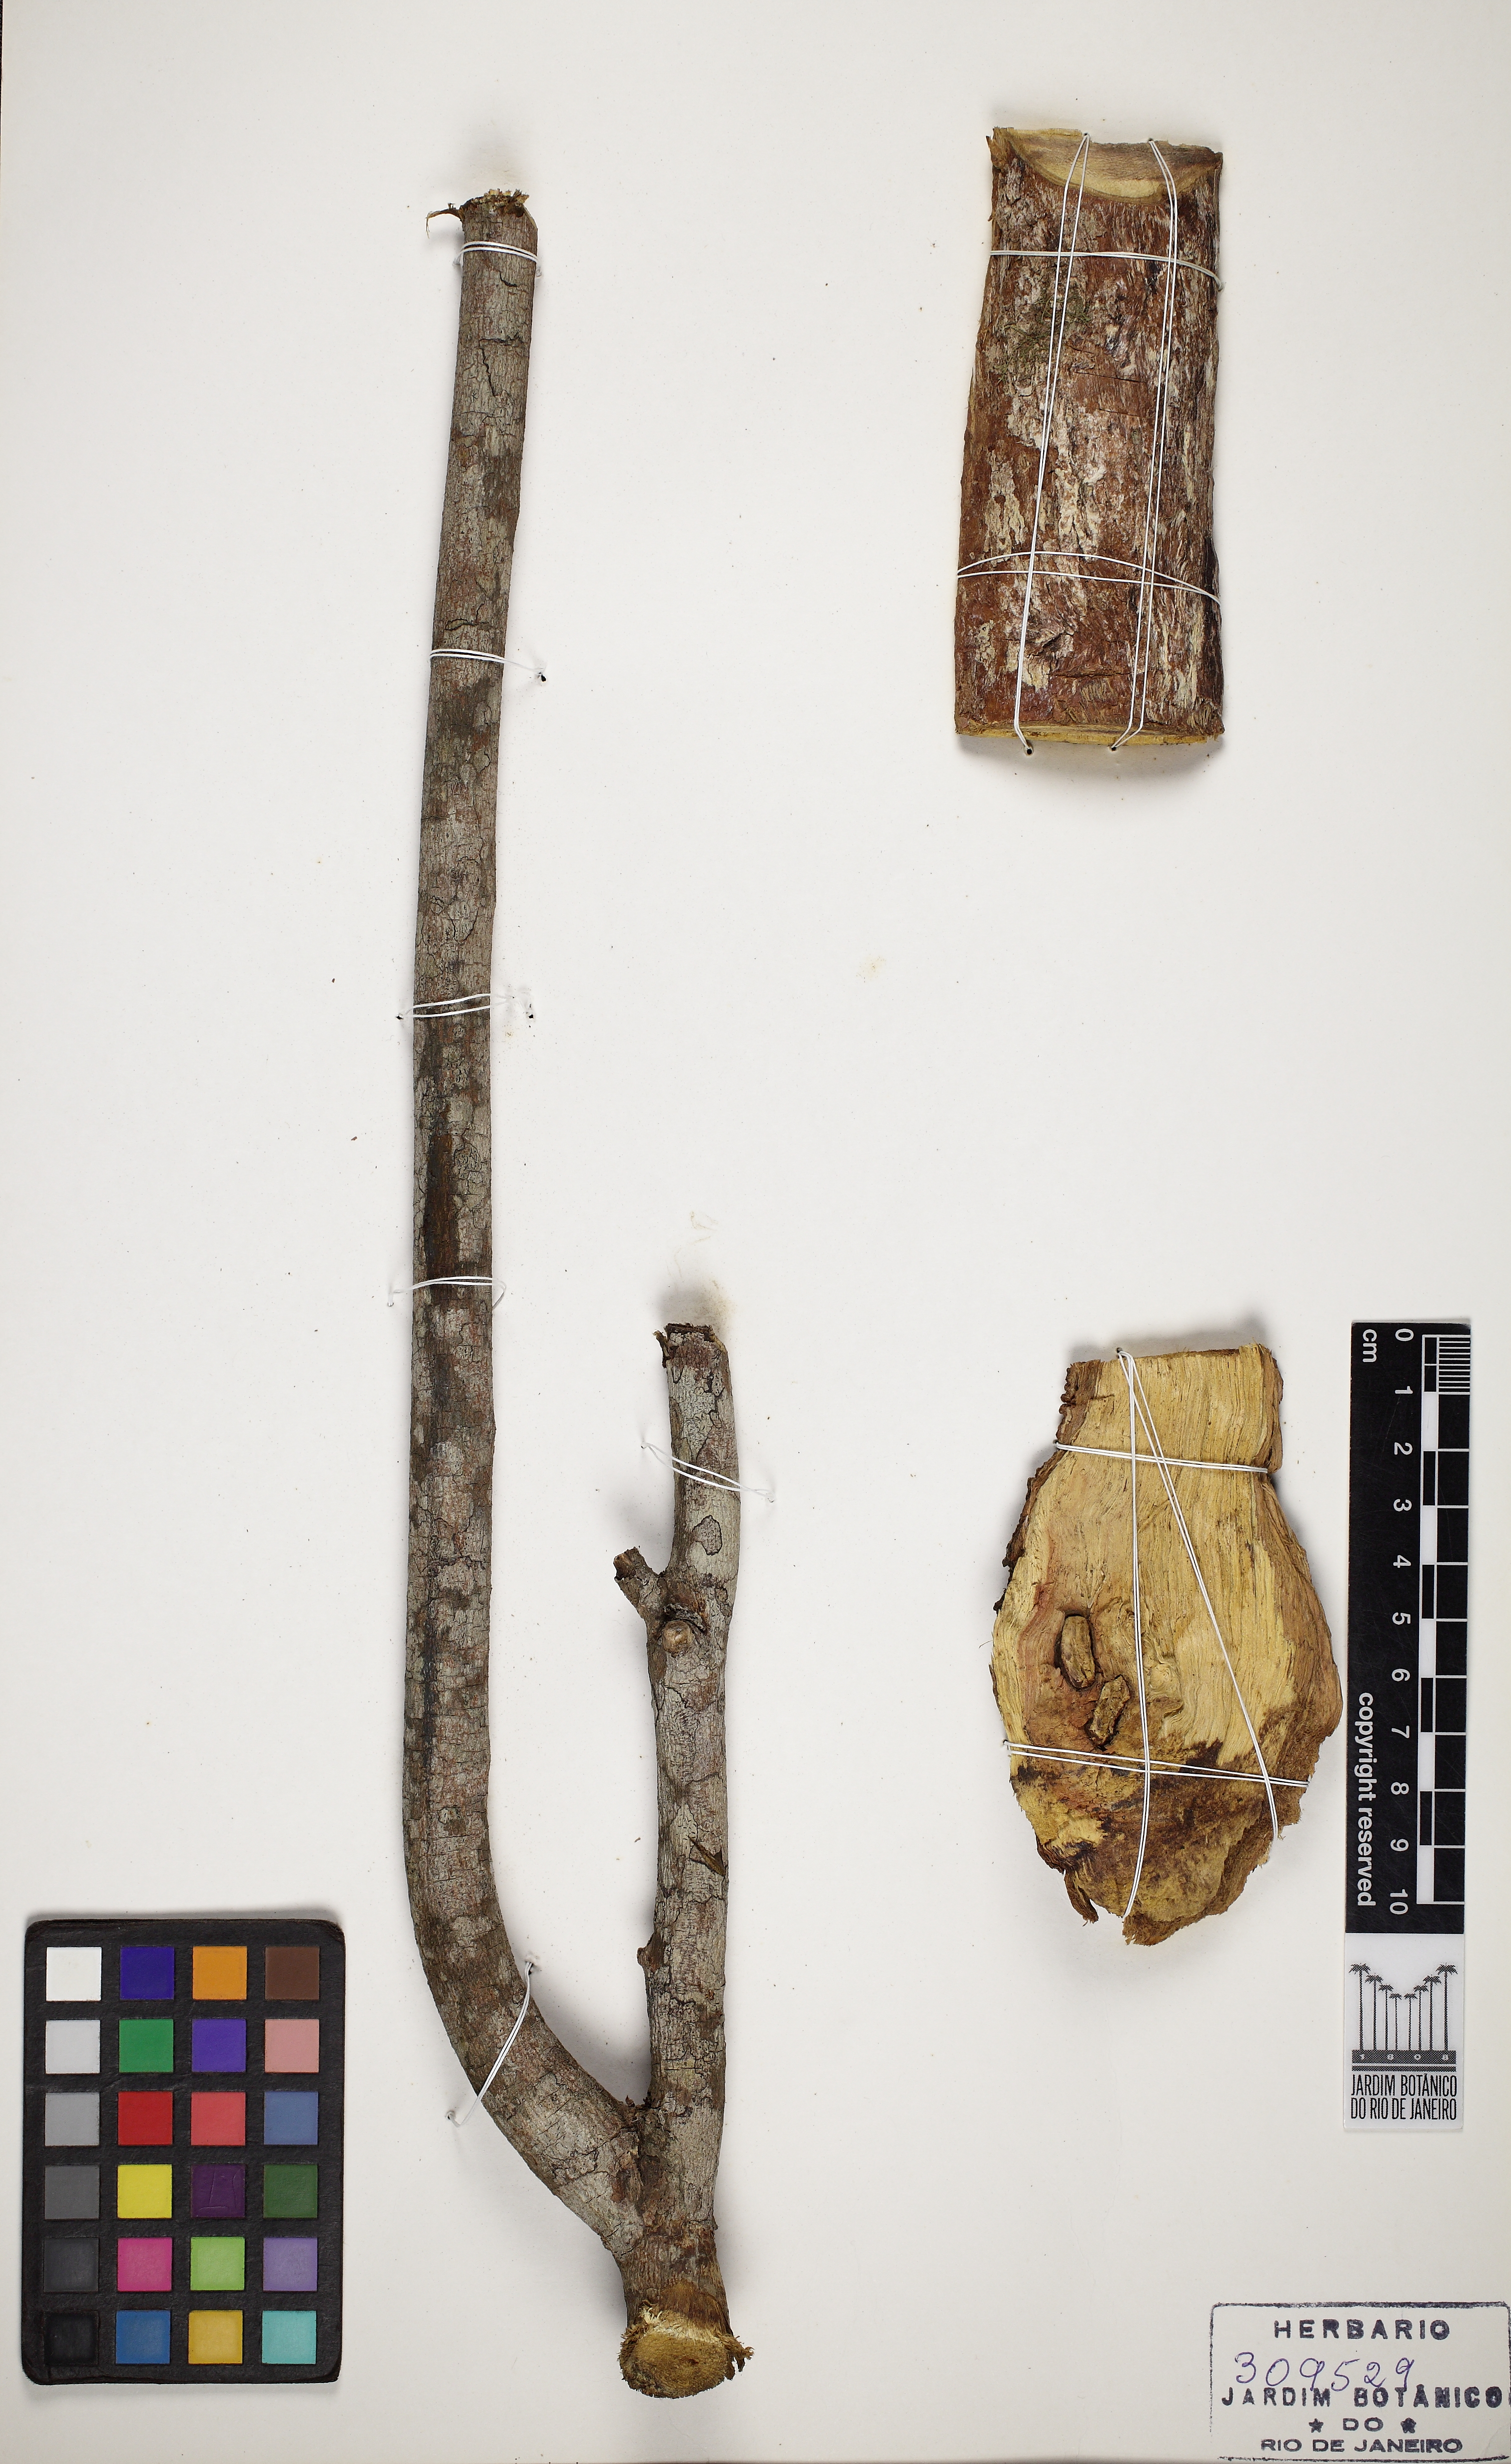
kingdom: Plantae
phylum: Tracheophyta
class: Magnoliopsida
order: Myrtales
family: Combretaceae
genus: Terminalia
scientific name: Terminalia kleinii
